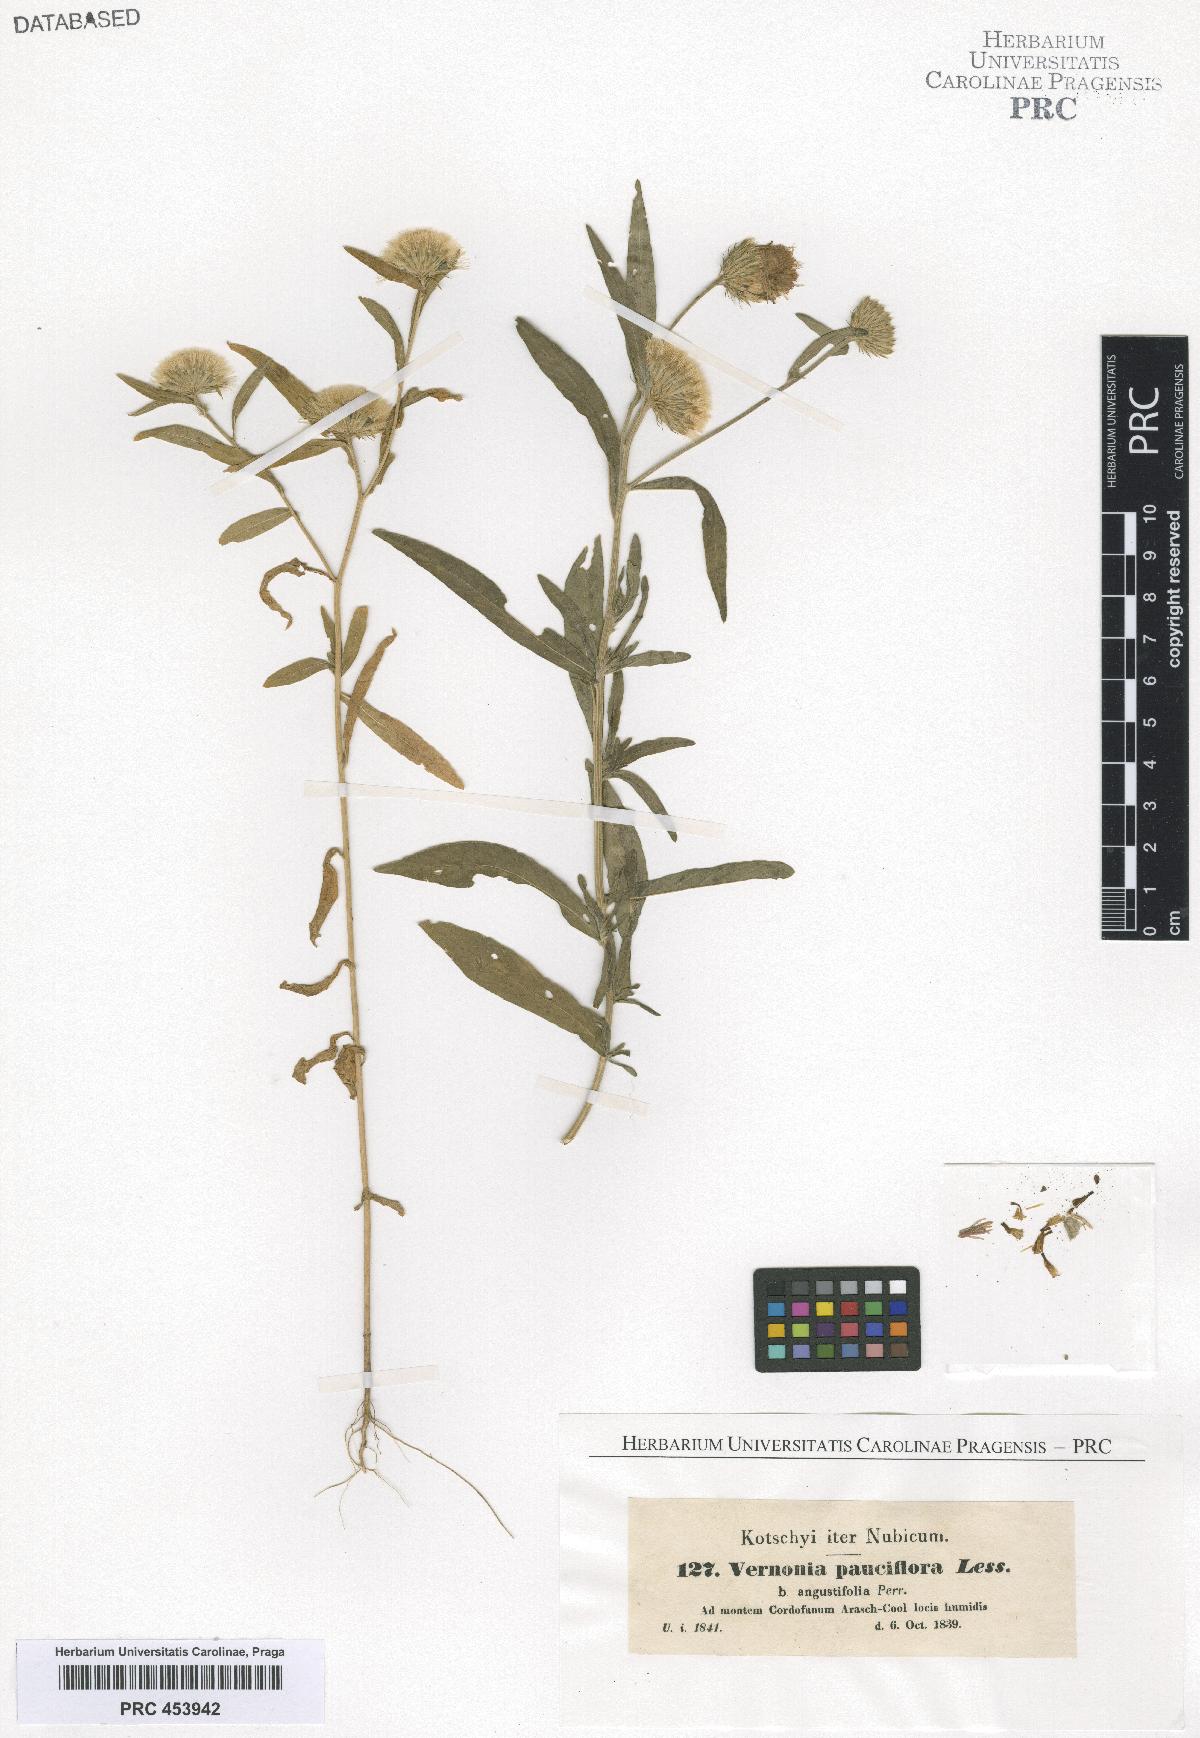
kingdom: Plantae
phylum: Tracheophyta
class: Magnoliopsida
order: Asterales
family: Asteraceae
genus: Vernonia
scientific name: Vernonia pauciflora
